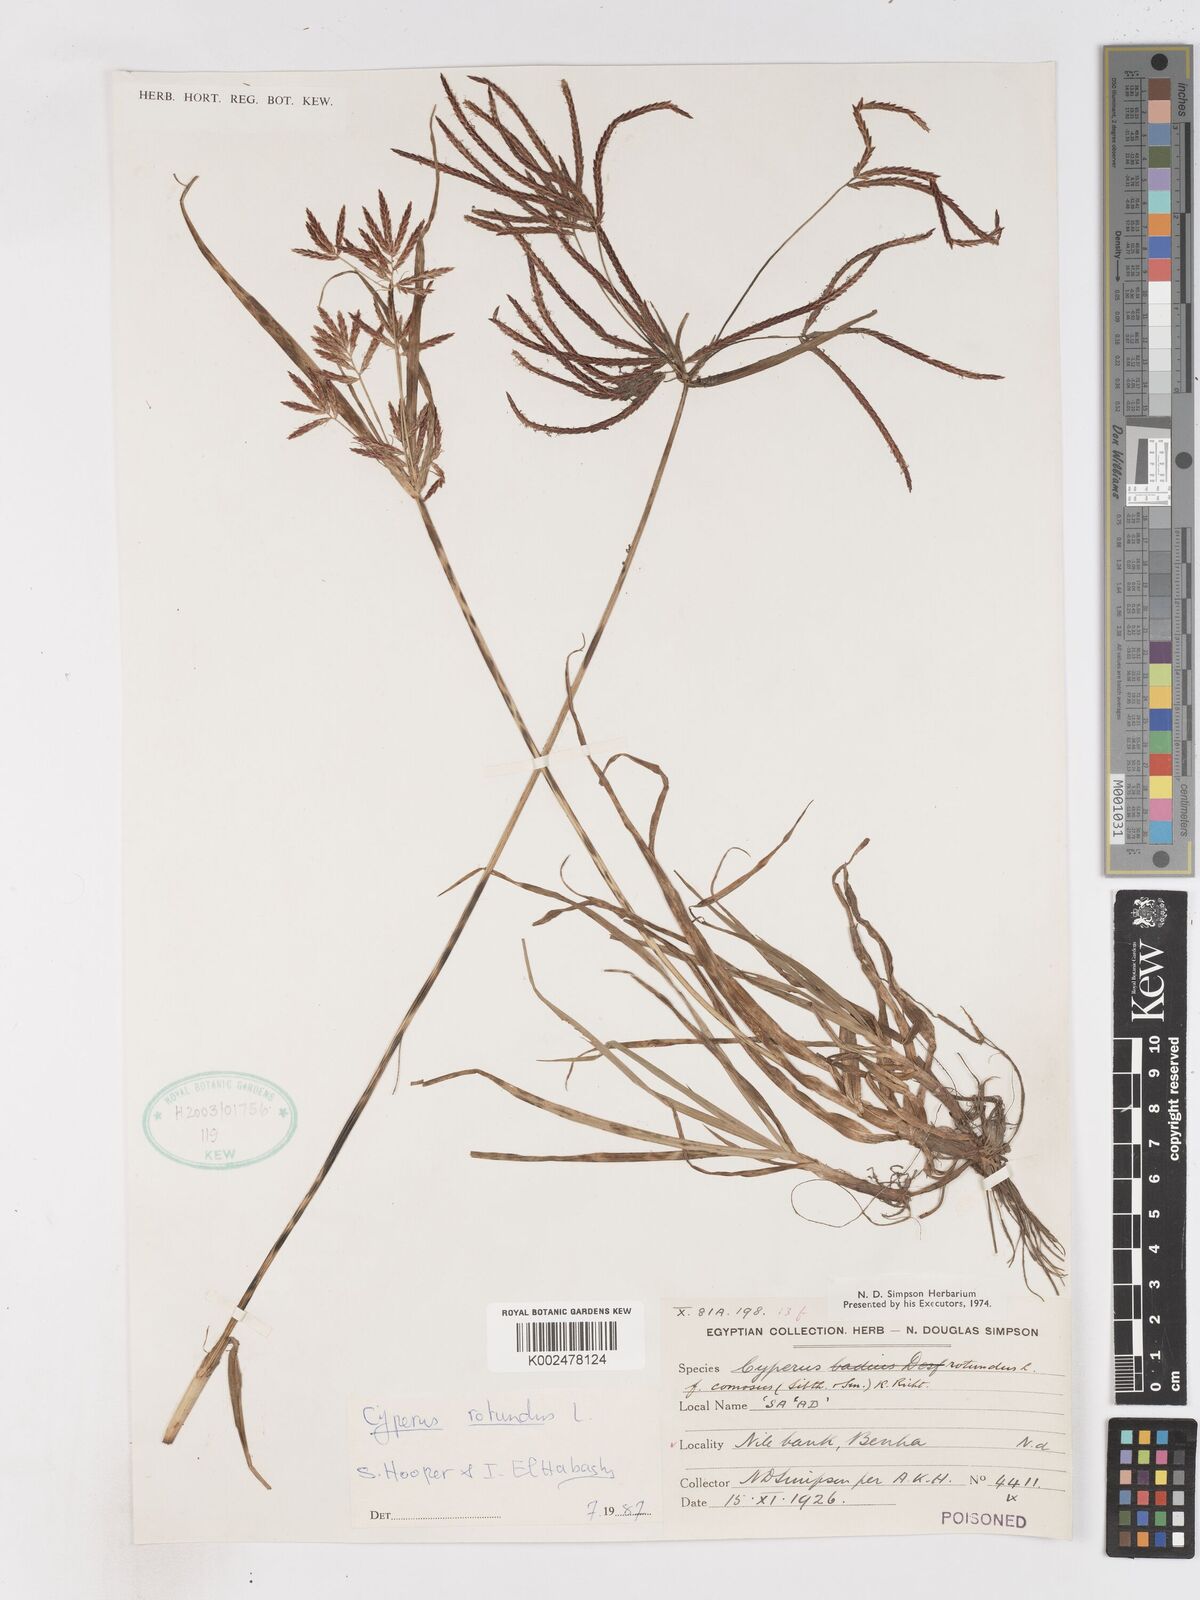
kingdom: Plantae
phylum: Tracheophyta
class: Liliopsida
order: Poales
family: Cyperaceae
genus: Cyperus
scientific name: Cyperus rotundus
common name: Nutgrass
